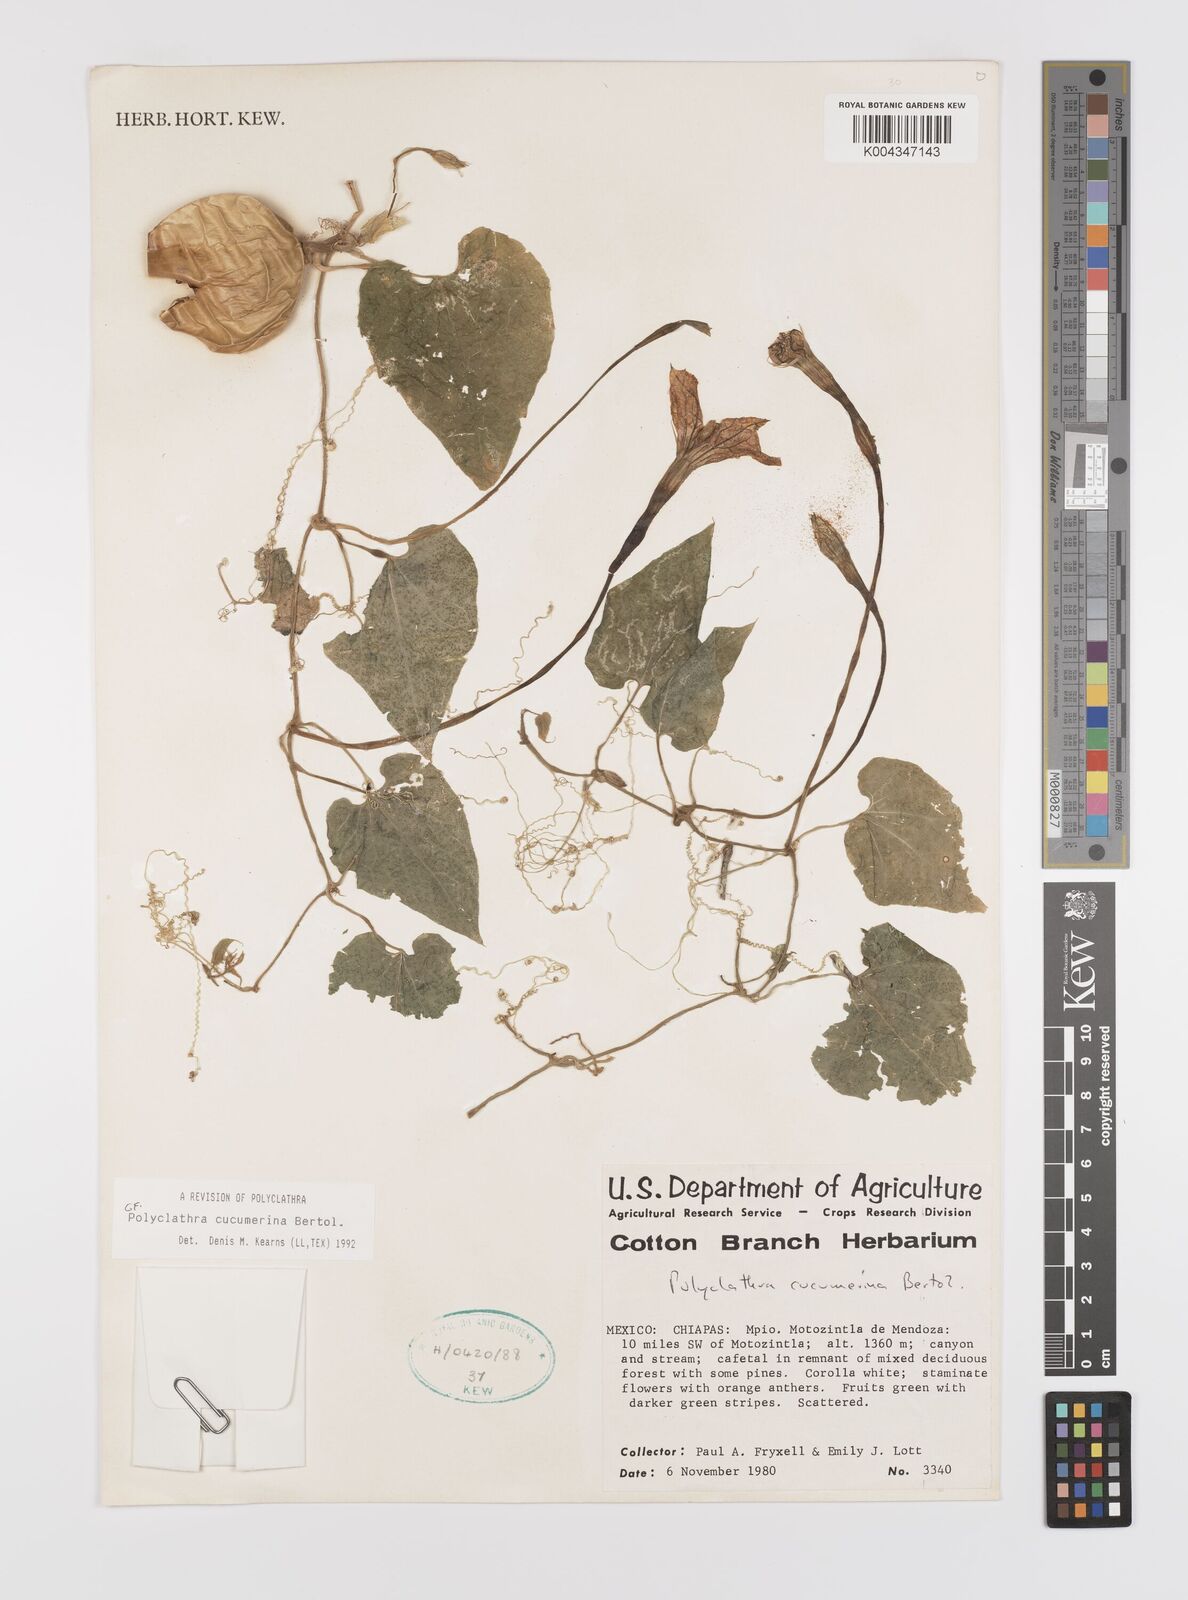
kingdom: Plantae
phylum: Tracheophyta
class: Magnoliopsida
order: Cucurbitales
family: Cucurbitaceae
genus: Polyclathra
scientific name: Polyclathra cucumerina
